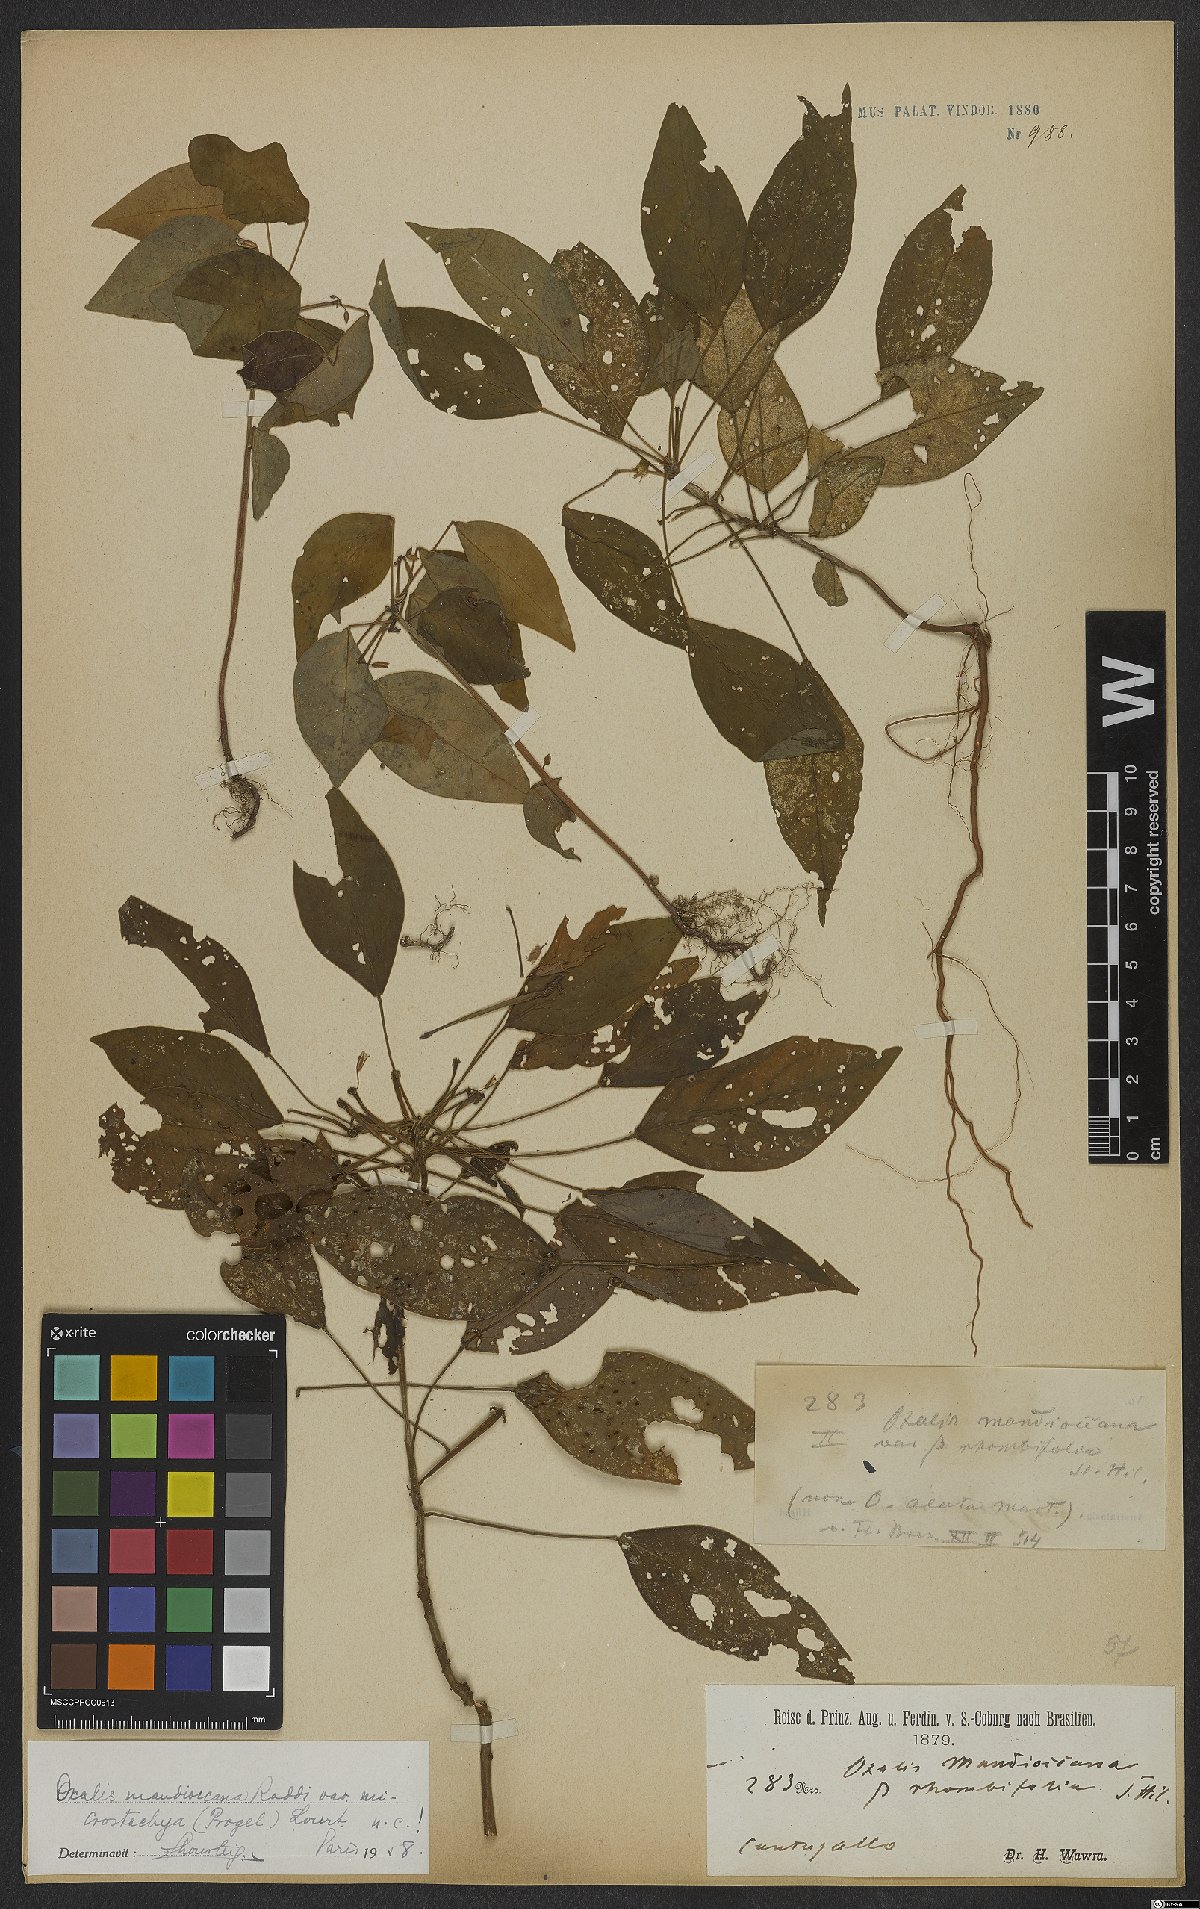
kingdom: Plantae
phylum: Tracheophyta
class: Magnoliopsida
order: Oxalidales
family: Oxalidaceae
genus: Oxalis
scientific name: Oxalis mandioccana
